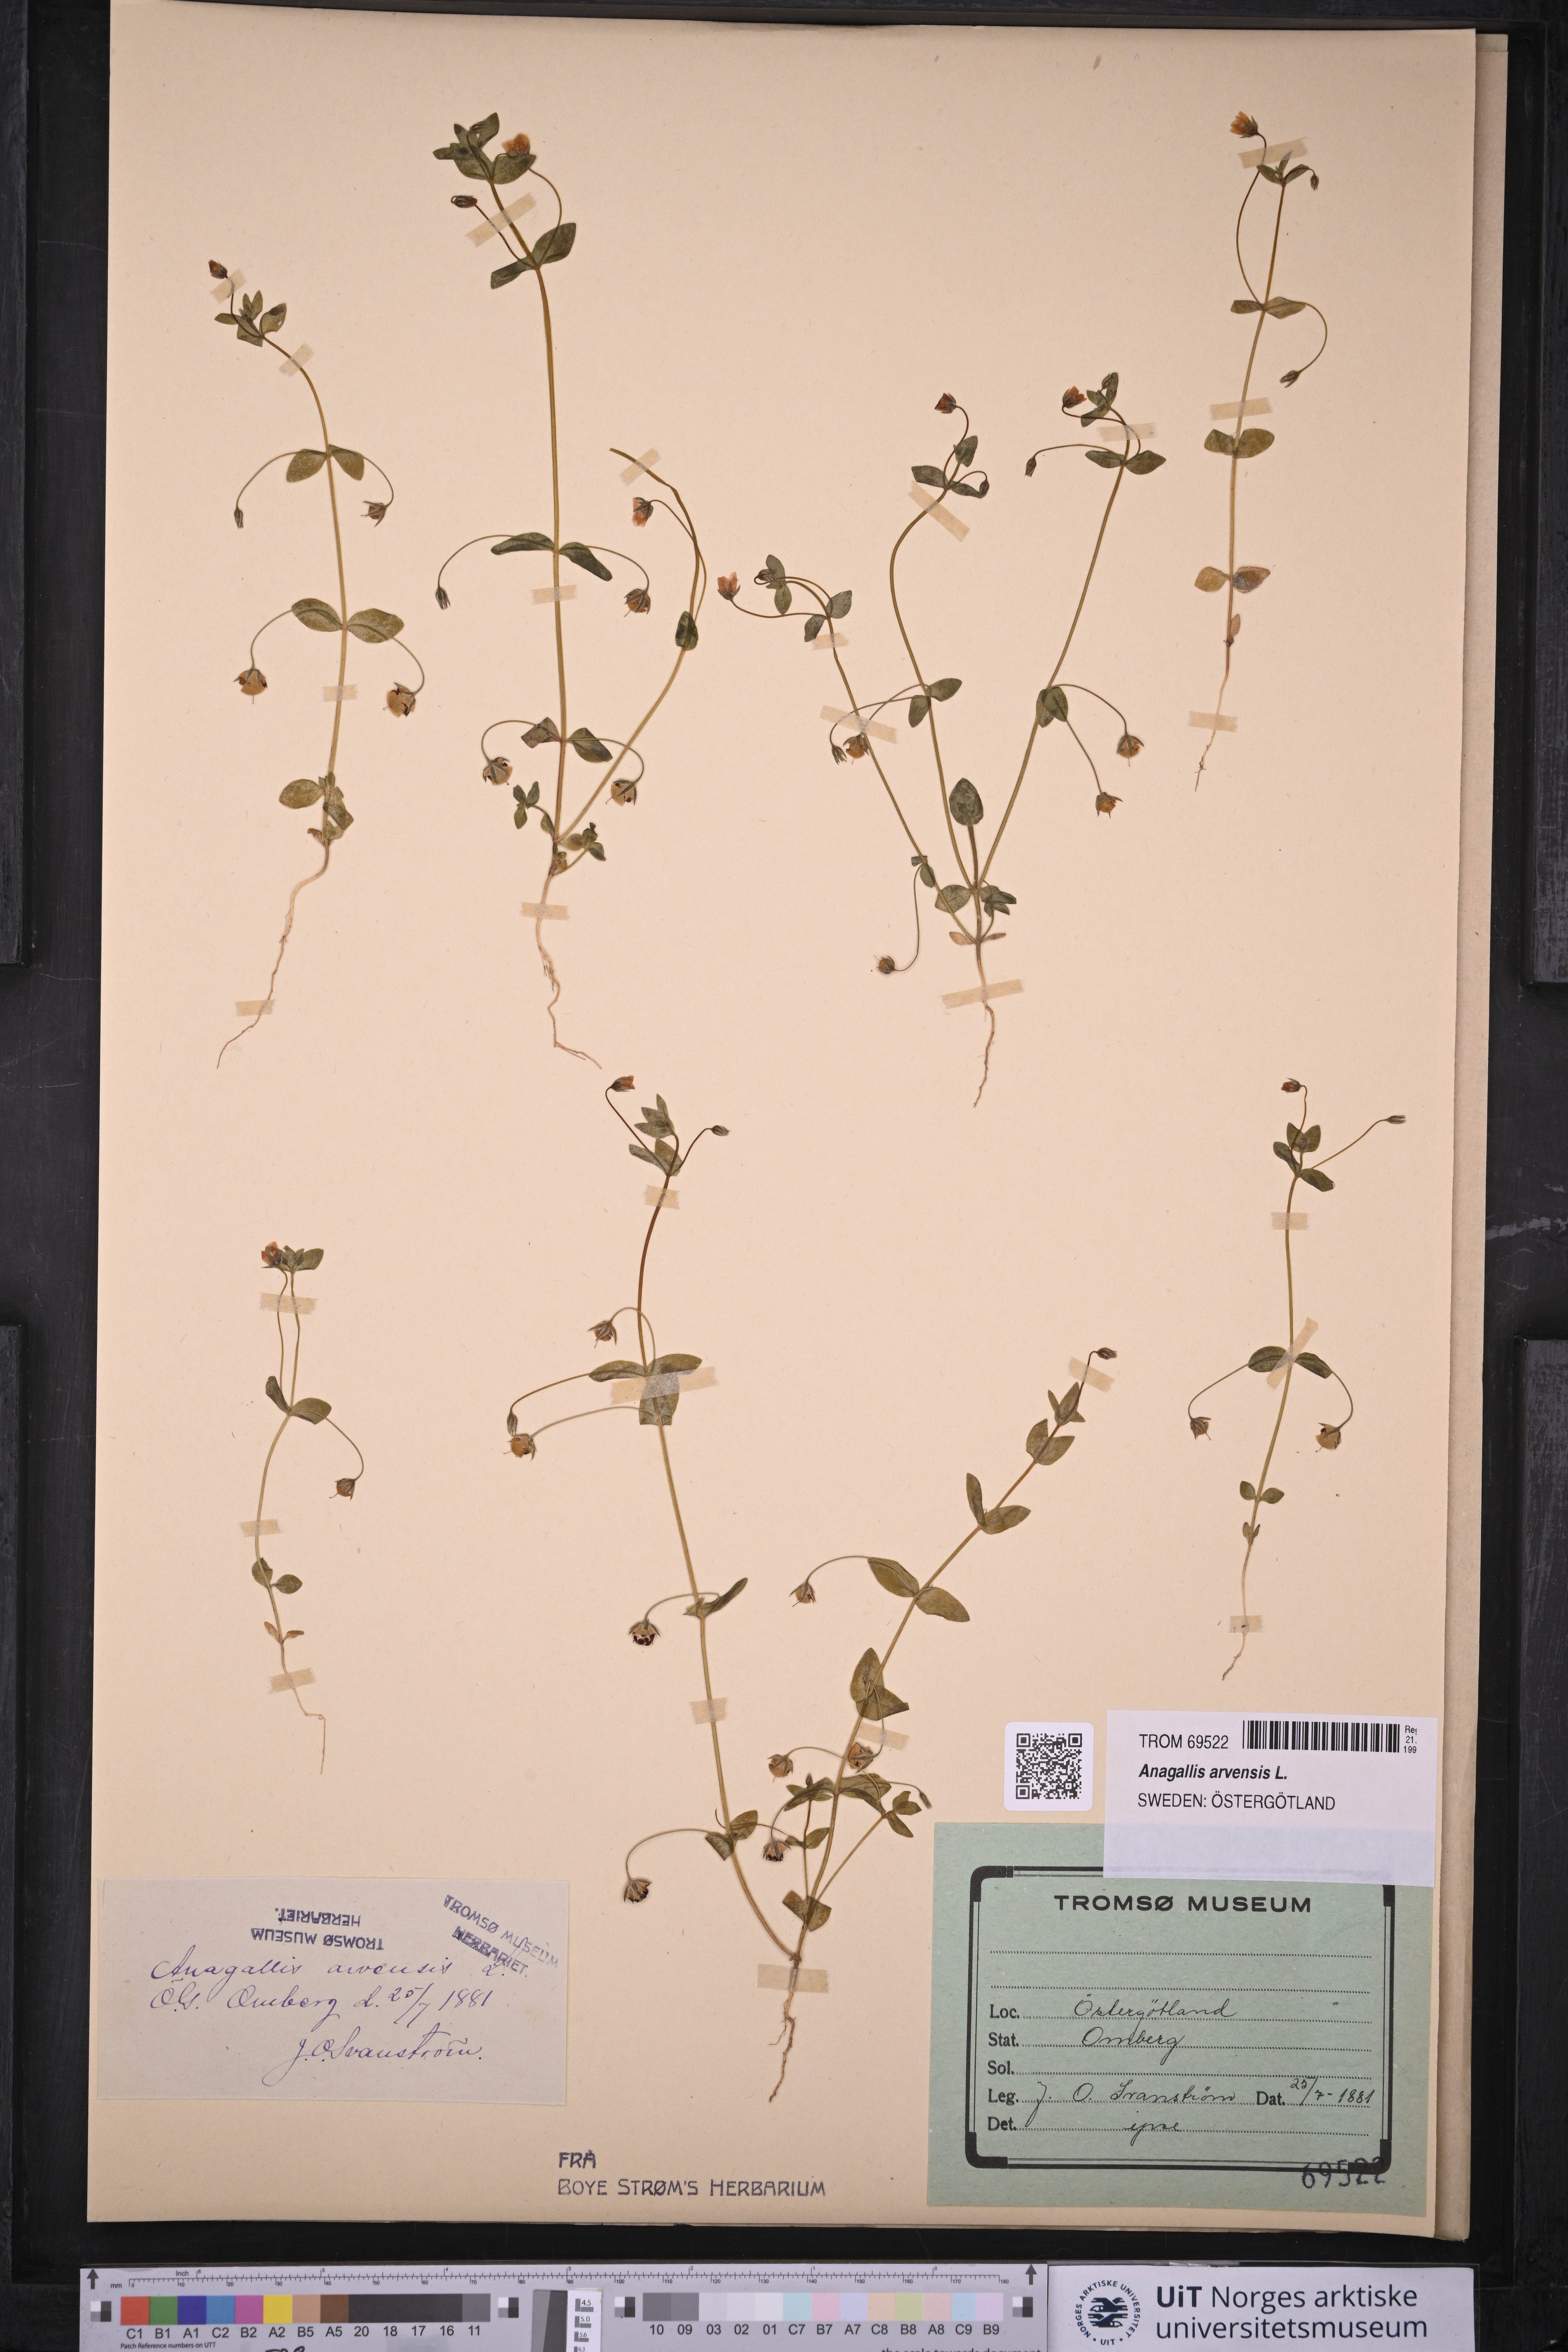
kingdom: Plantae
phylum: Tracheophyta
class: Magnoliopsida
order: Ericales
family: Primulaceae
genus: Lysimachia
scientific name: Lysimachia arvensis
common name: Scarlet pimpernel
